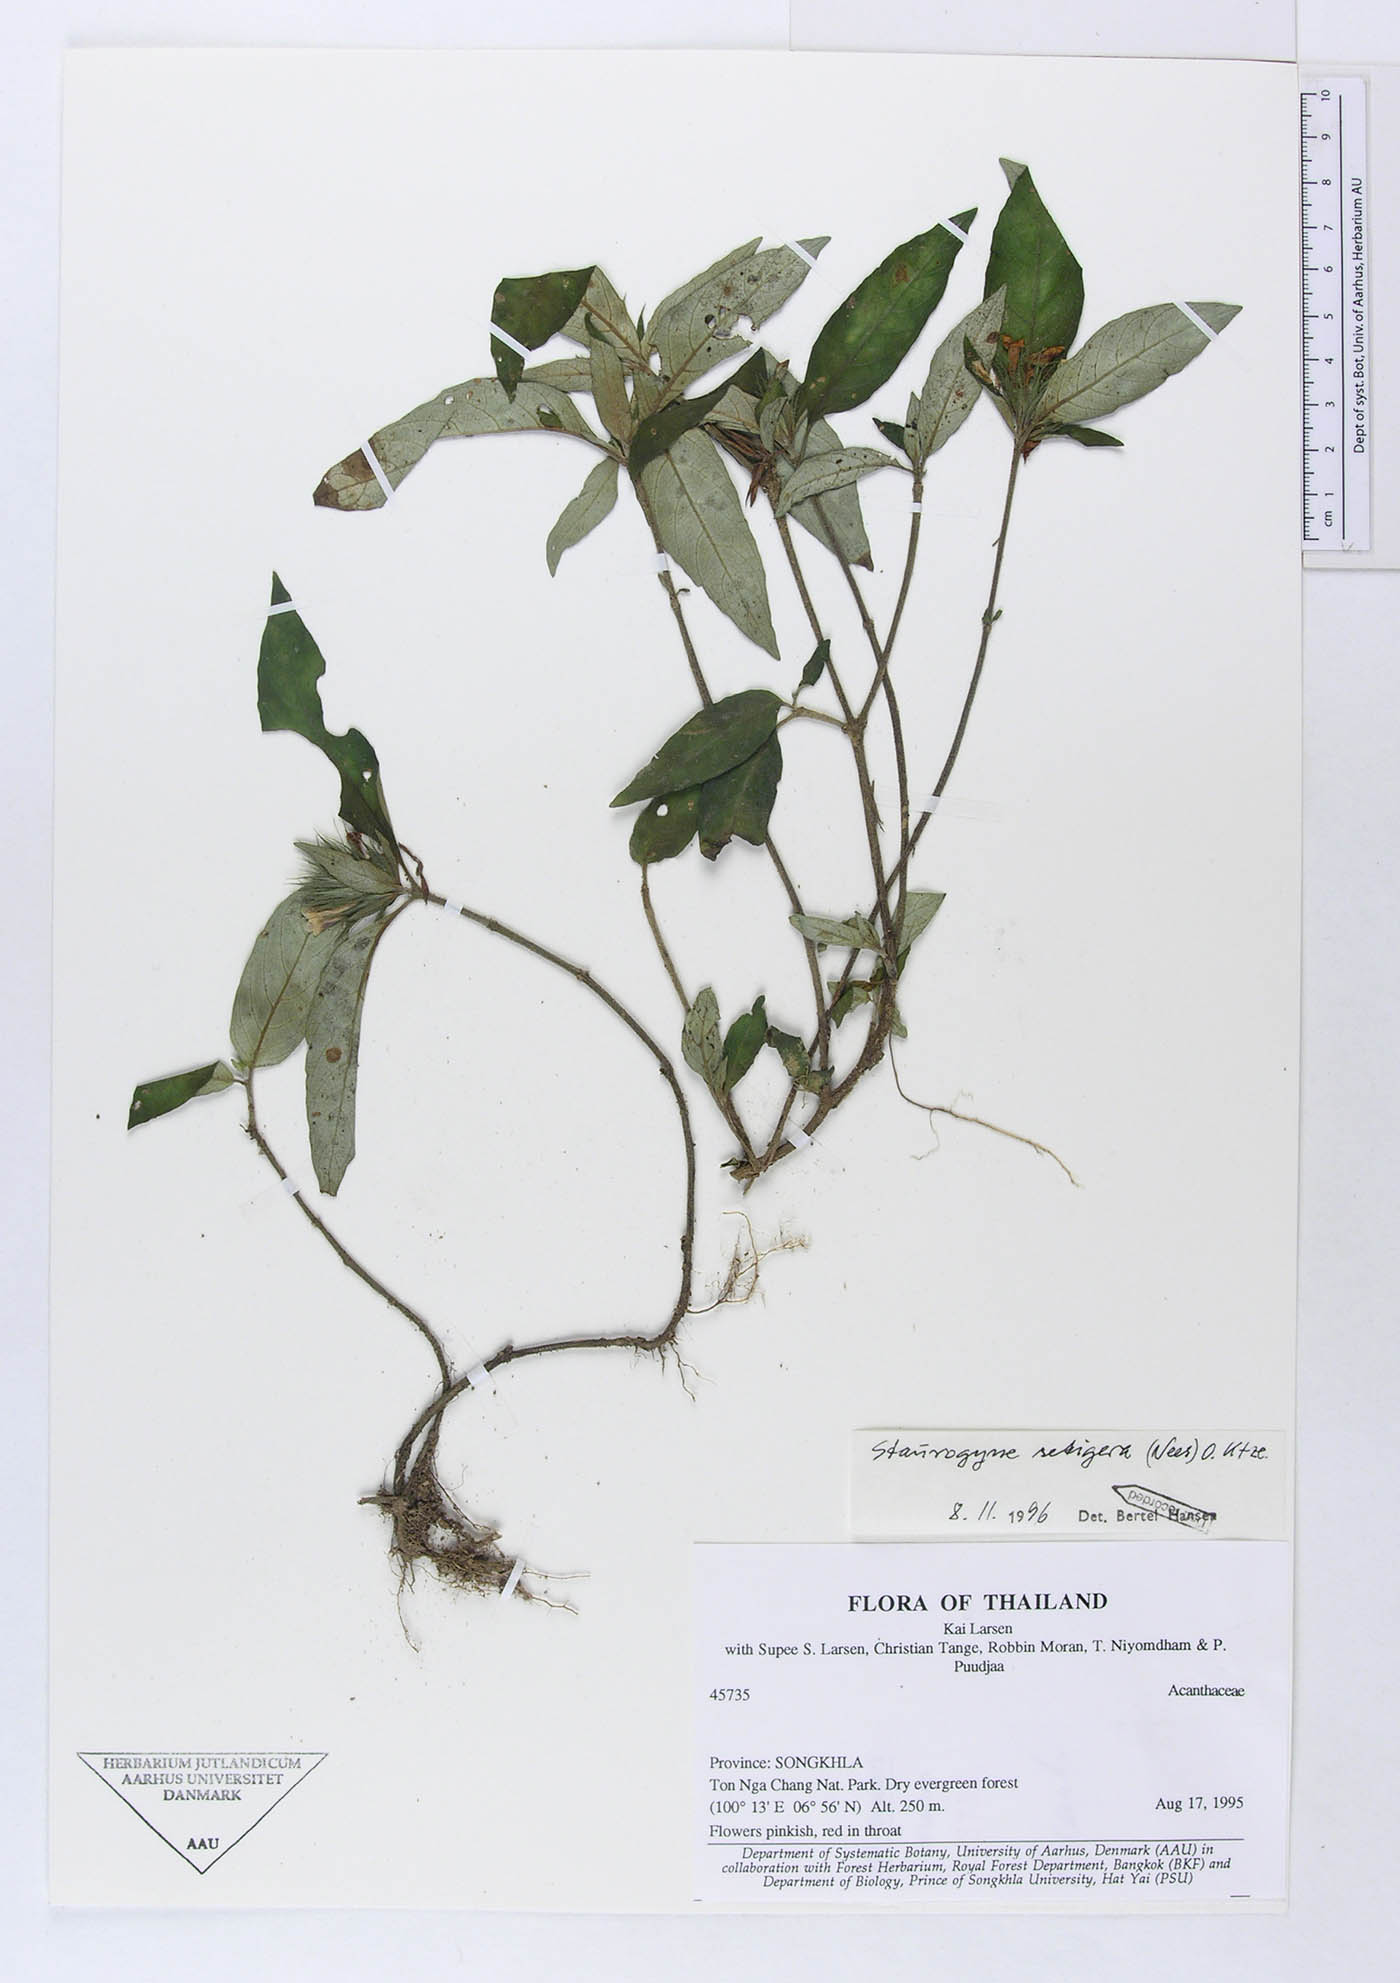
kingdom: Plantae
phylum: Tracheophyta
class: Magnoliopsida
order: Lamiales
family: Acanthaceae
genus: Staurogyne
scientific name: Staurogyne setigera
